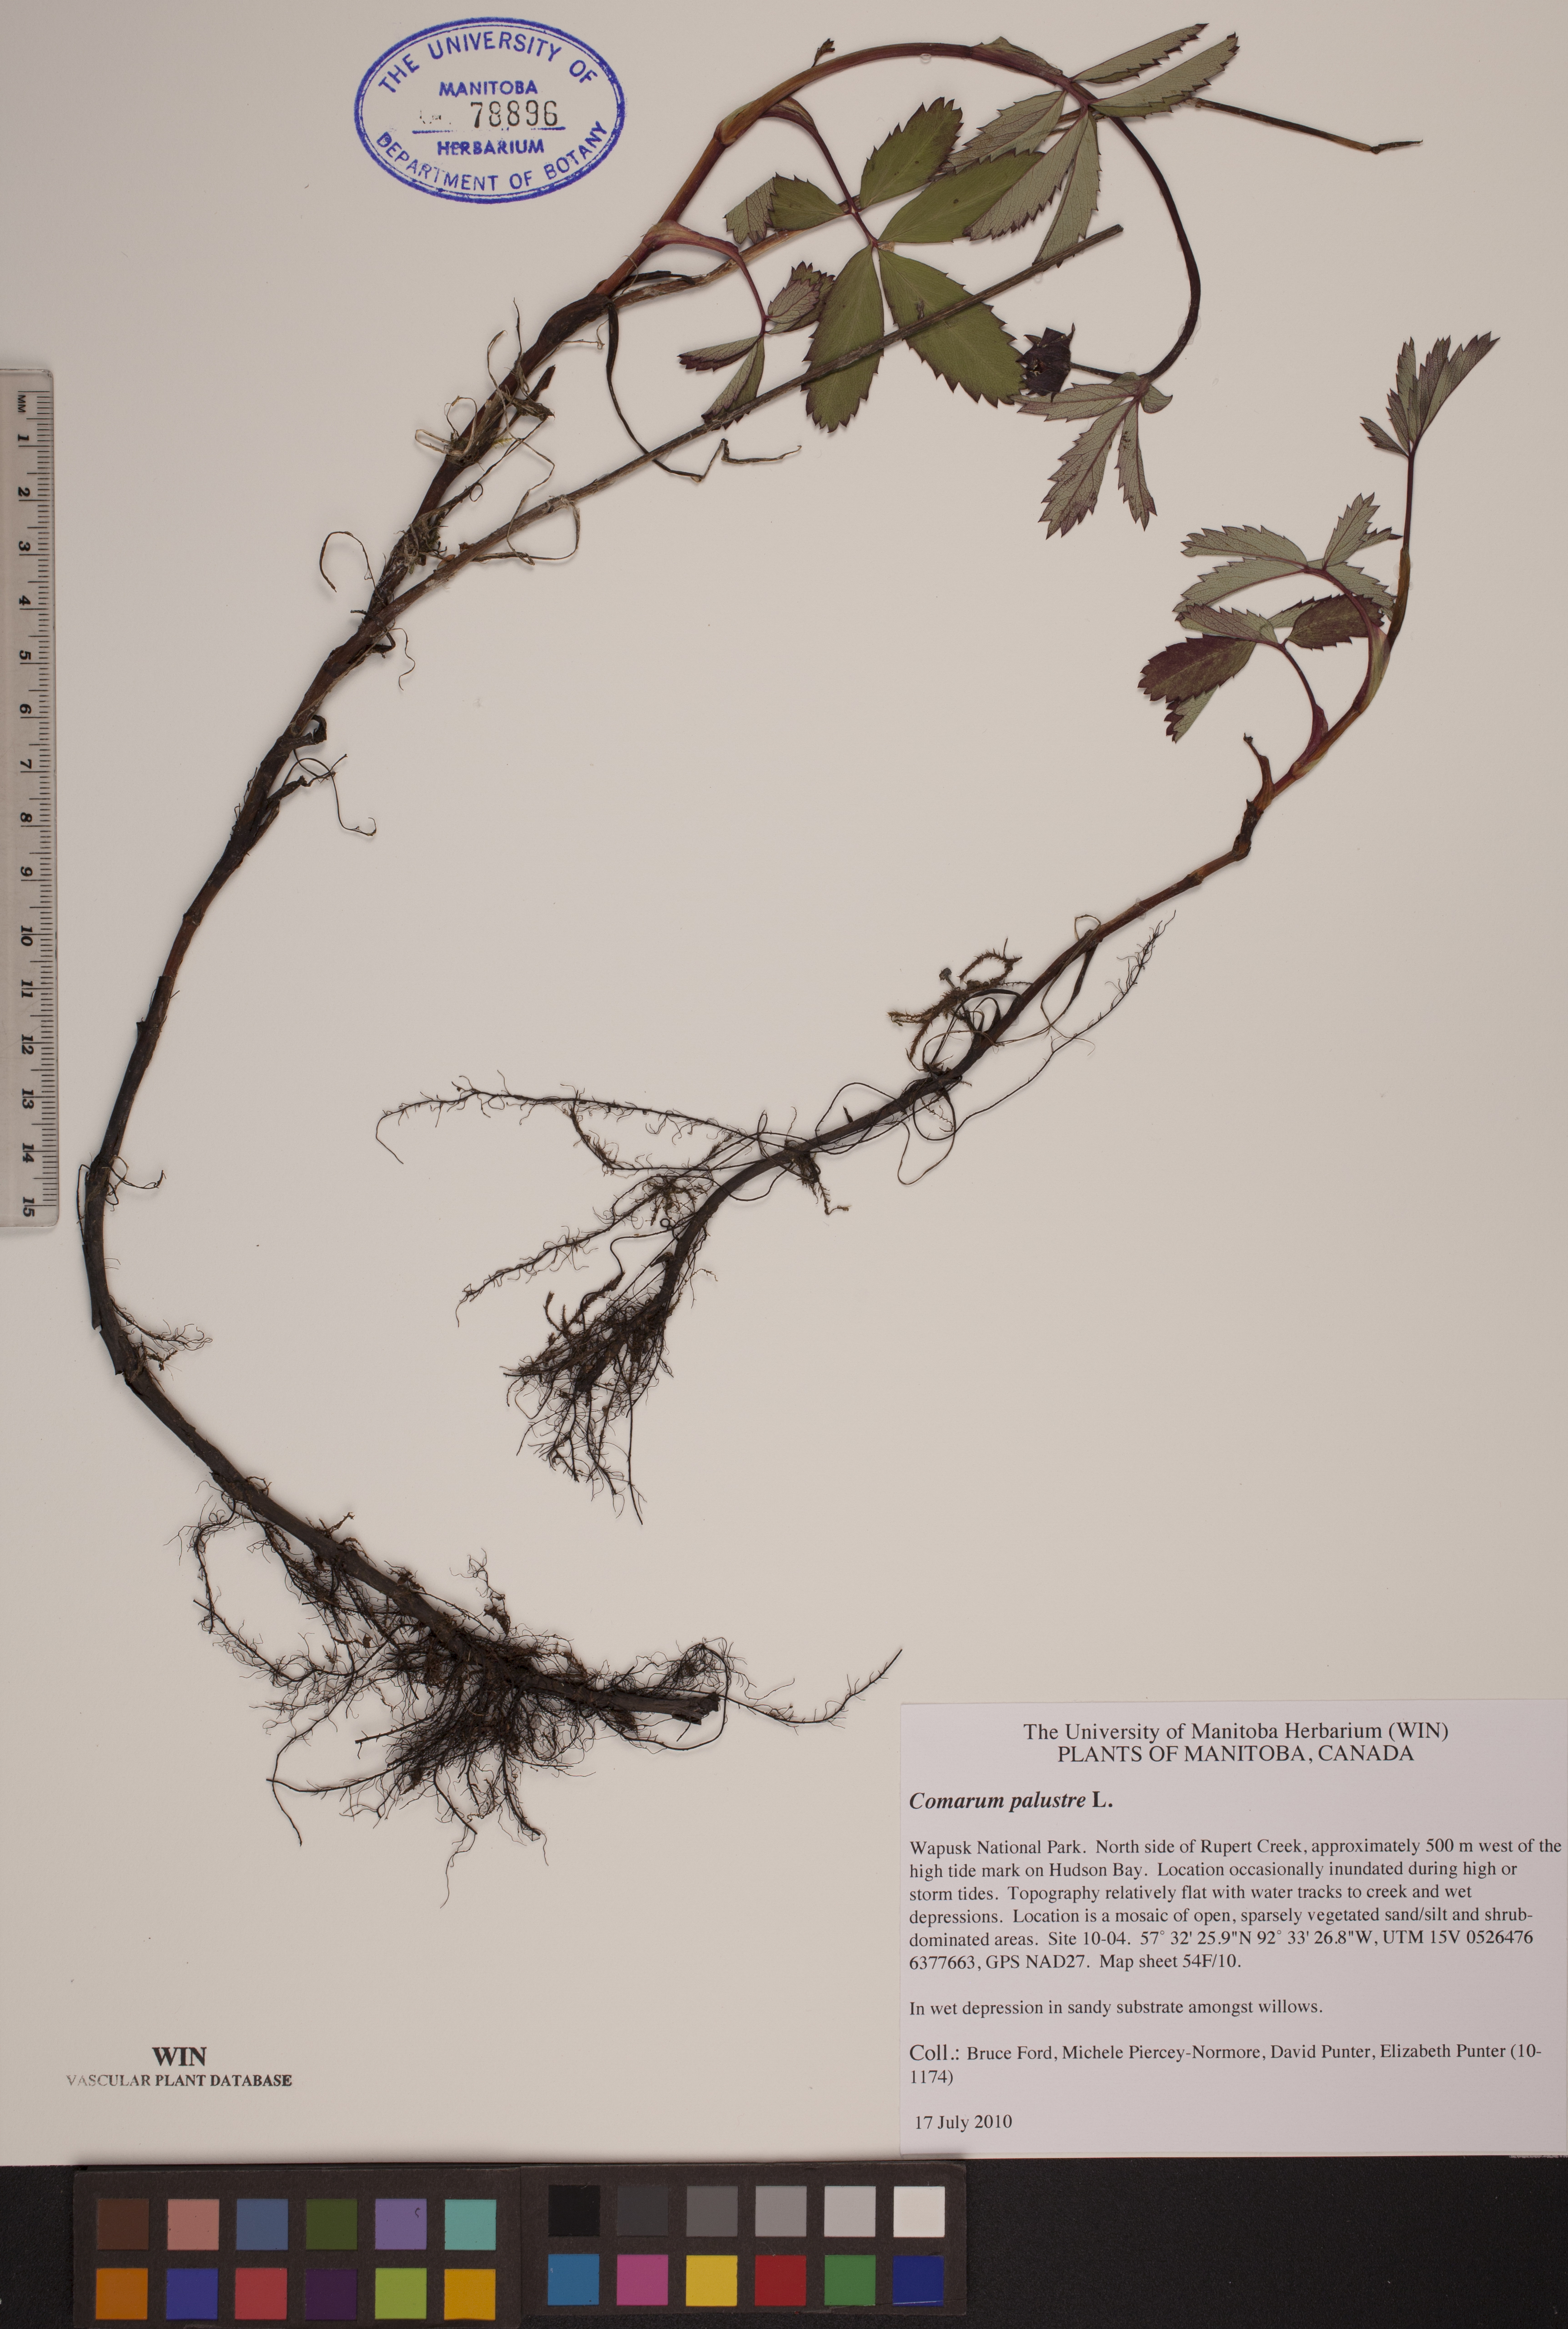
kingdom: Plantae
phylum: Tracheophyta
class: Magnoliopsida
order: Rosales
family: Rosaceae
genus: Comarum
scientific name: Comarum palustre
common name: Marsh cinquefoil
